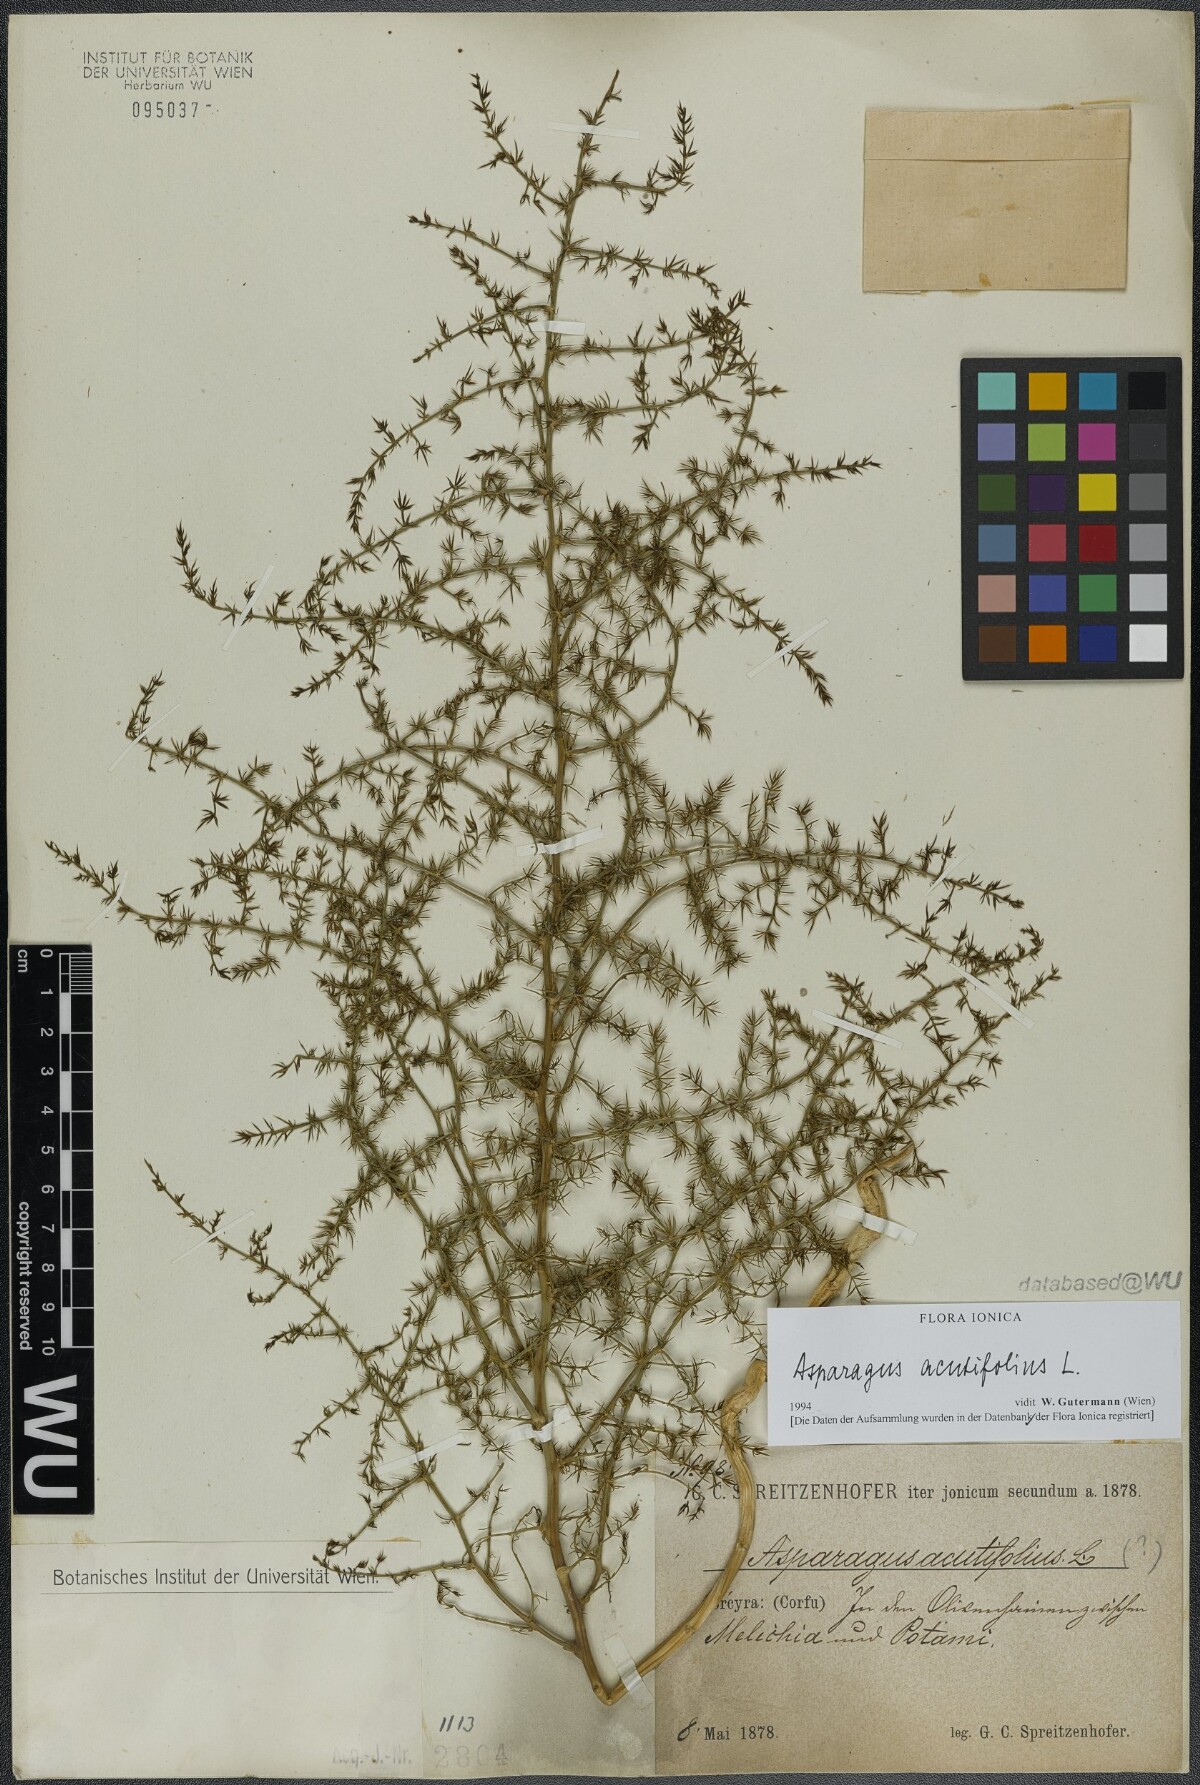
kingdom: Plantae
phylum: Tracheophyta
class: Liliopsida
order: Asparagales
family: Asparagaceae
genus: Asparagus
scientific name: Asparagus acutifolius
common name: Wild asparagus
